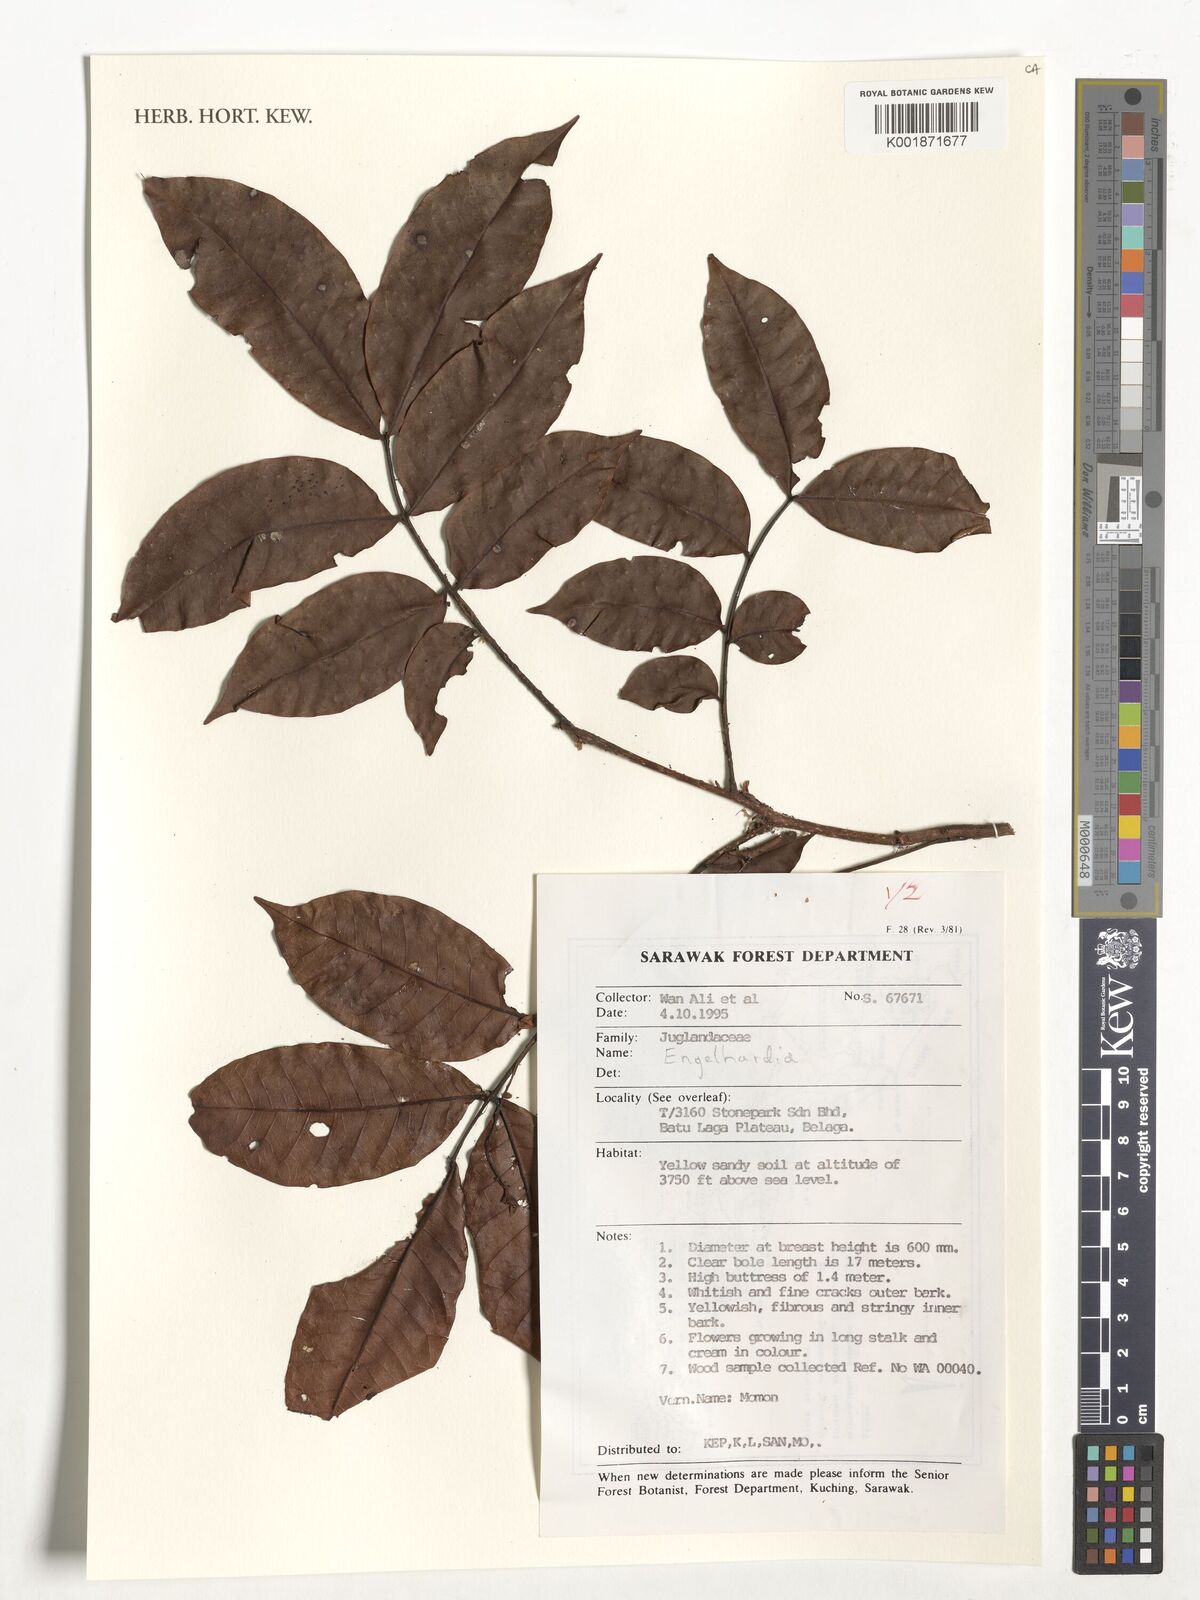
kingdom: Plantae
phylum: Tracheophyta
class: Magnoliopsida
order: Fagales
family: Juglandaceae
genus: Engelhardia
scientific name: Engelhardia
